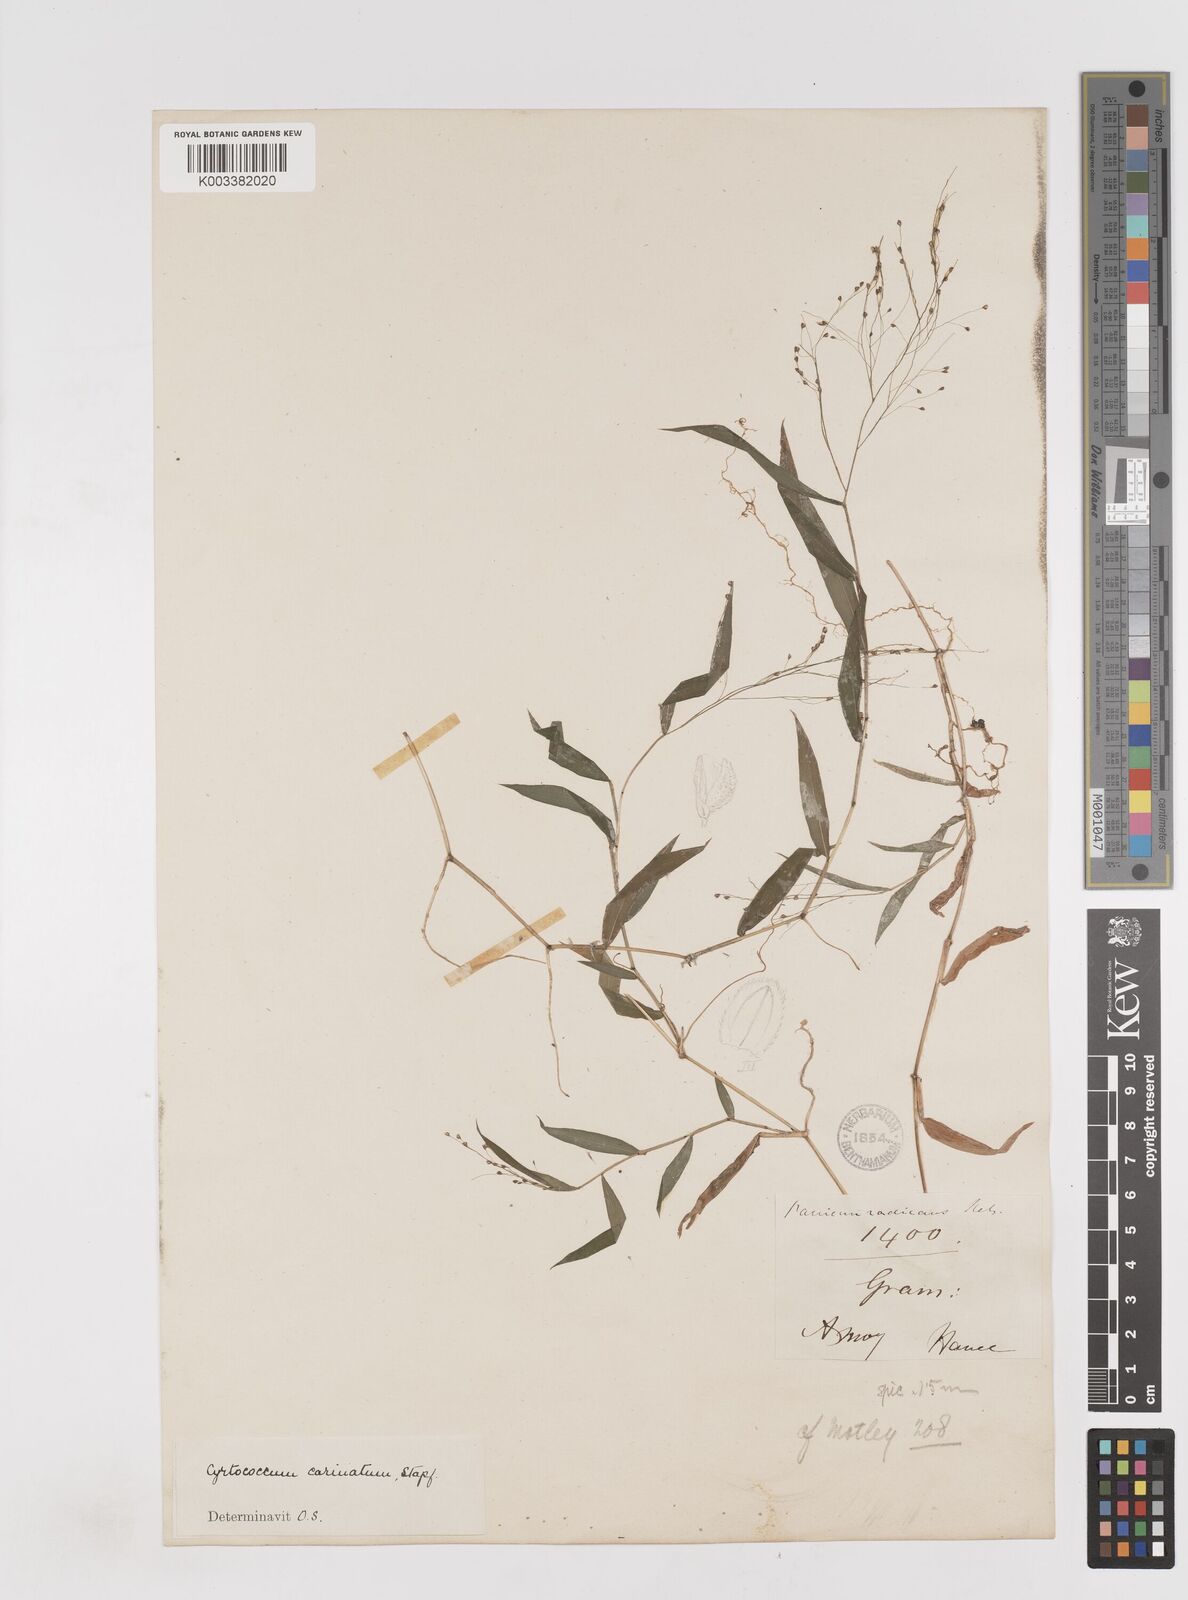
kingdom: Plantae
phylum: Tracheophyta
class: Liliopsida
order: Poales
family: Poaceae
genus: Cyrtococcum
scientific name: Cyrtococcum patens
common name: Broad-leaved bowgrass
